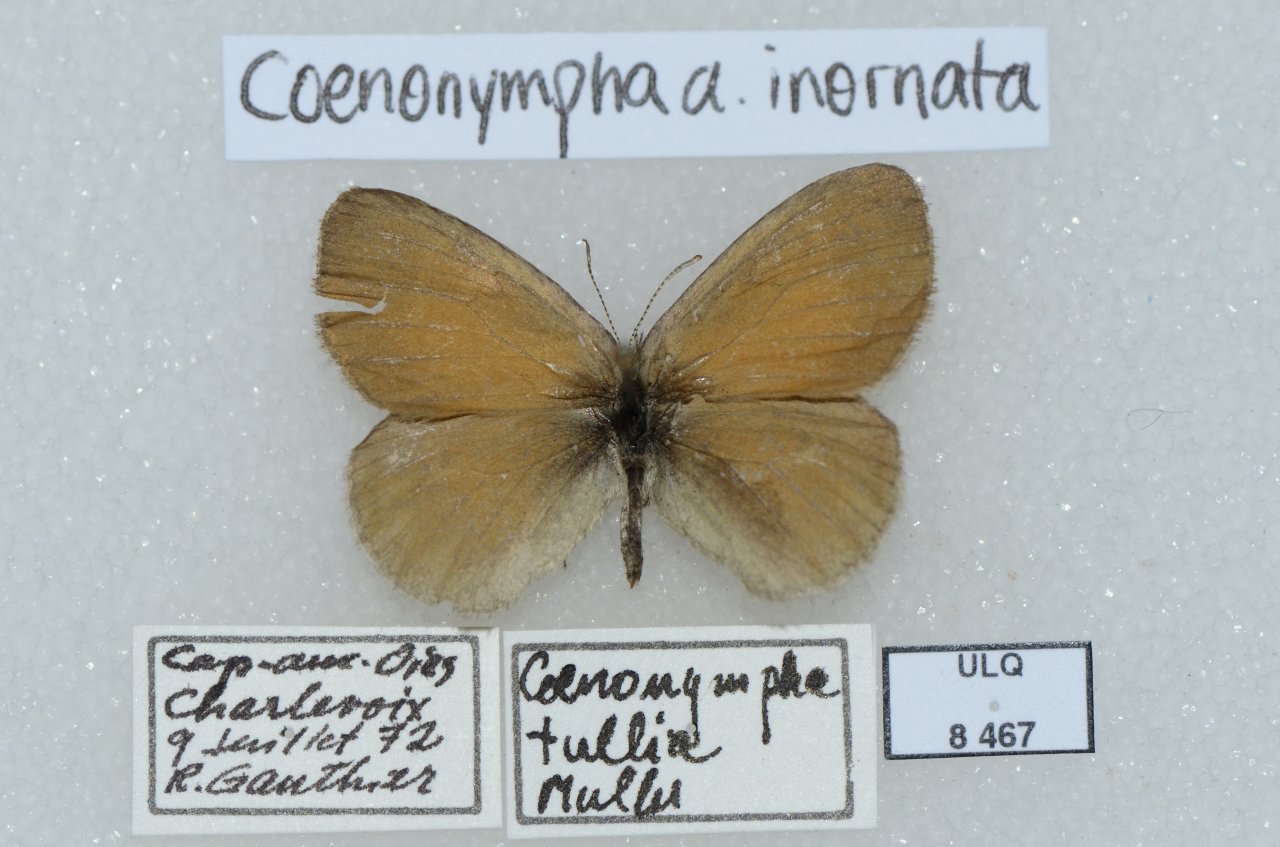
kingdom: Animalia
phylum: Arthropoda
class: Insecta
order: Lepidoptera
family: Nymphalidae
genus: Coenonympha
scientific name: Coenonympha tullia
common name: Large Heath
